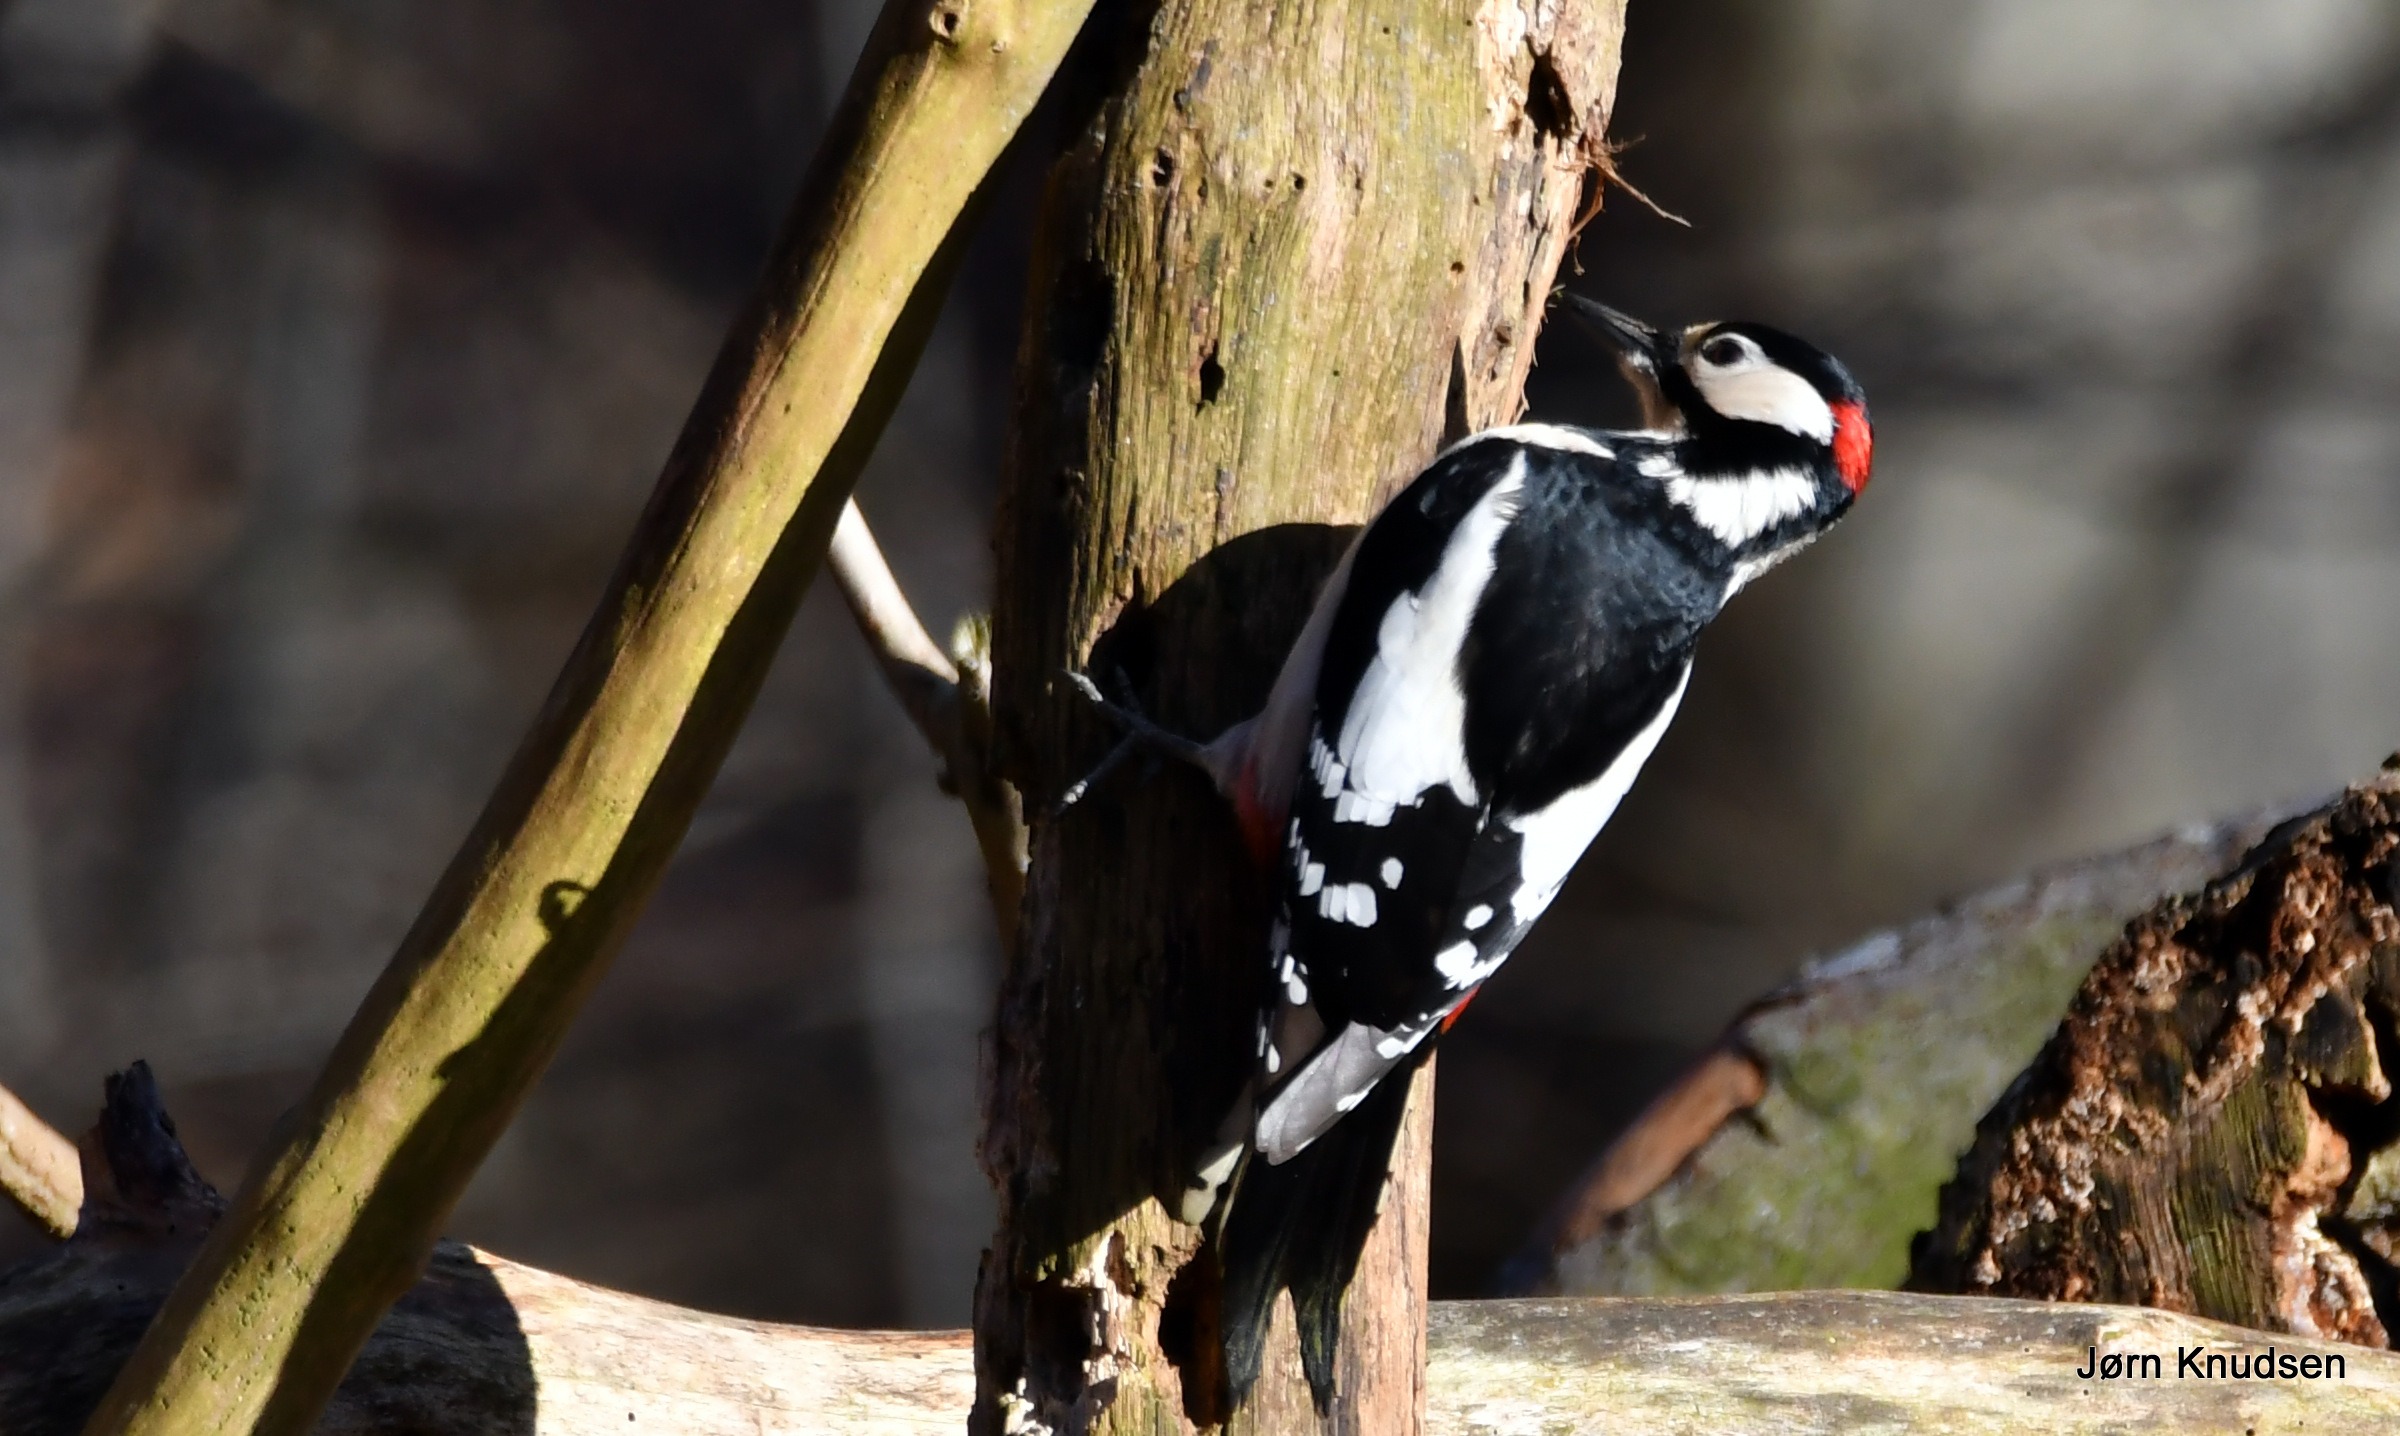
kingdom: Animalia
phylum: Chordata
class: Aves
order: Piciformes
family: Picidae
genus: Dendrocopos
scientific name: Dendrocopos major
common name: Stor flagspætte
